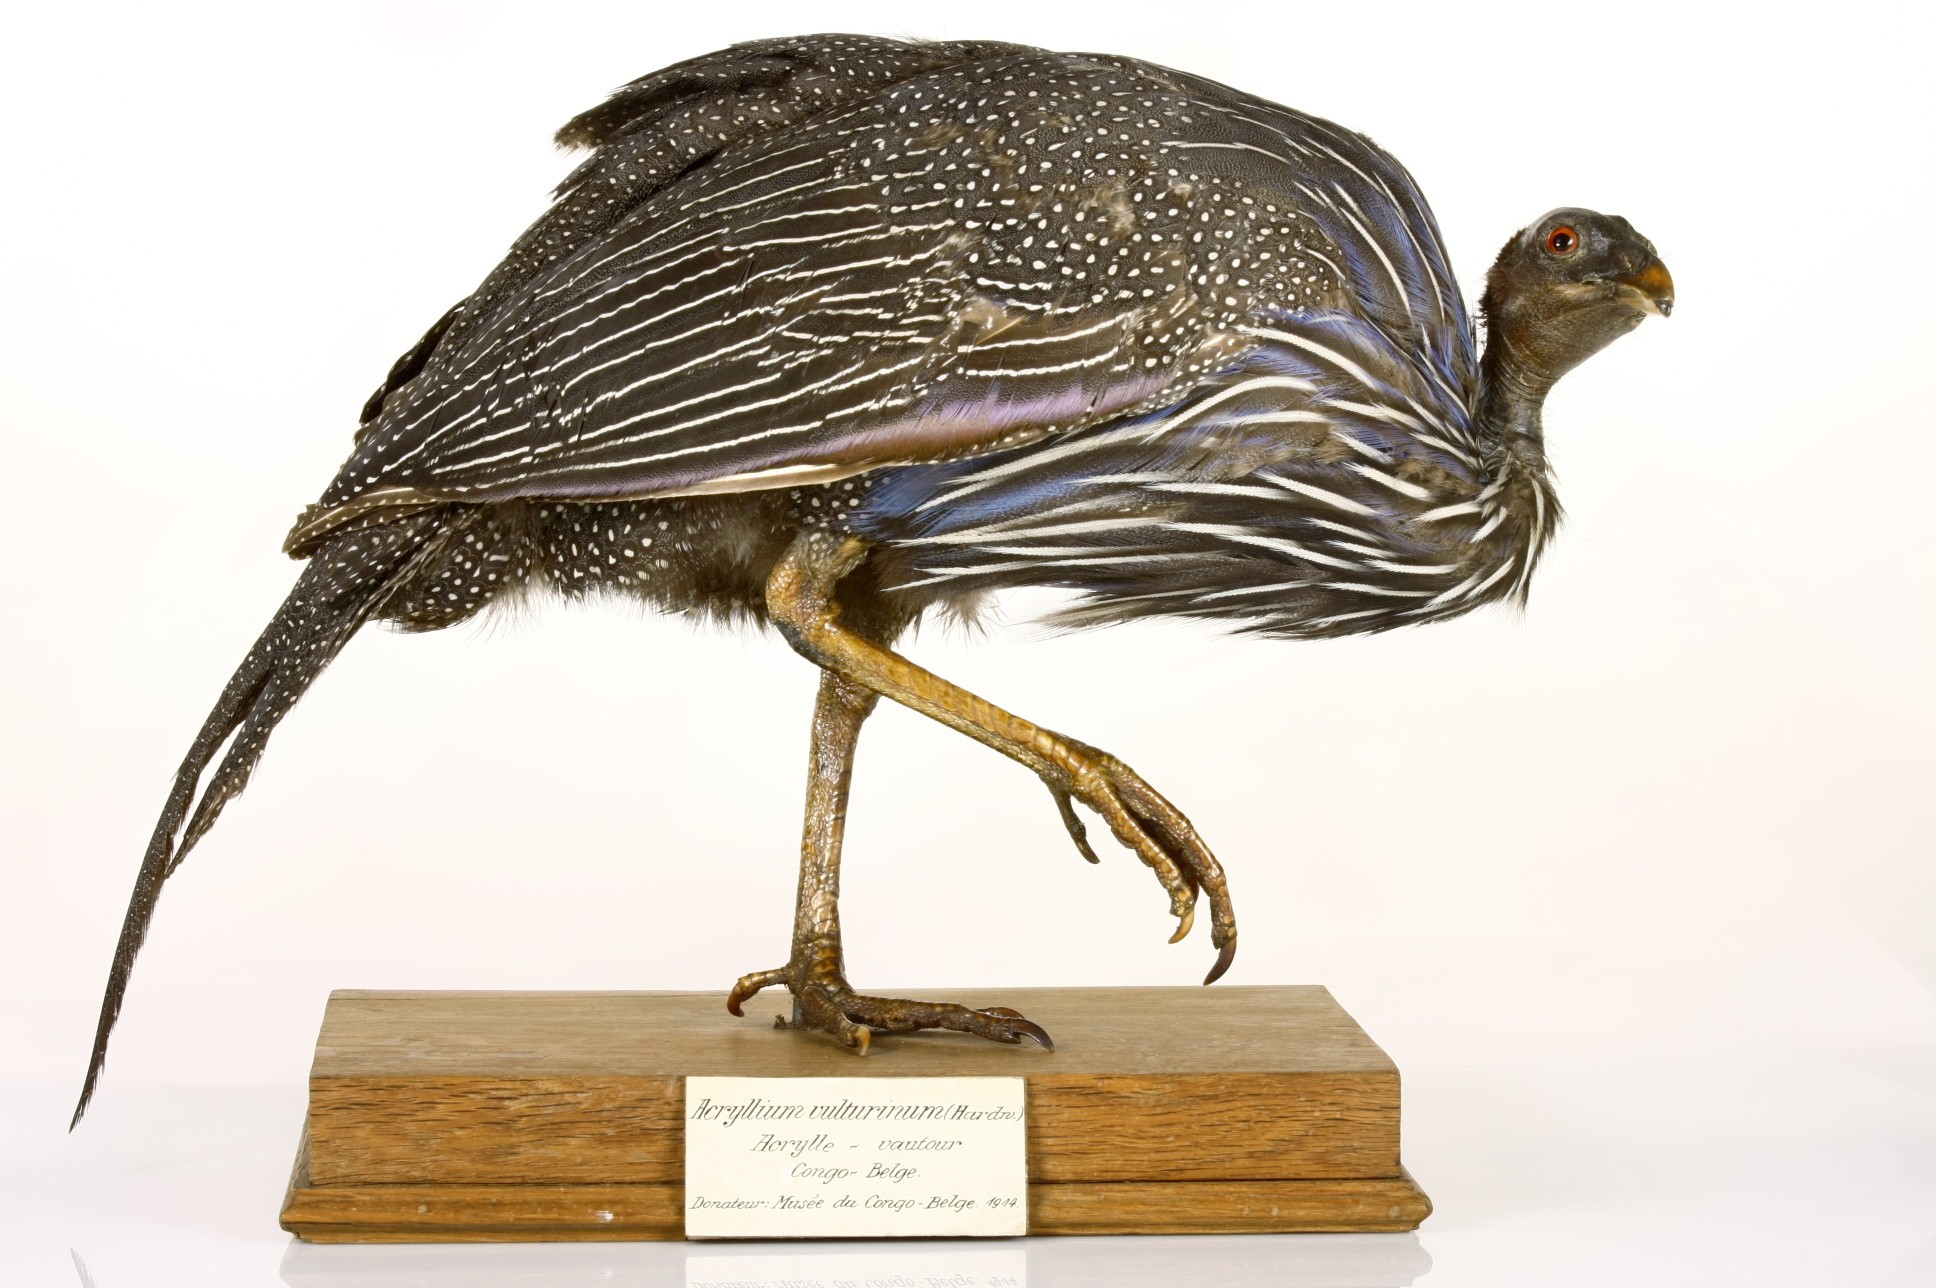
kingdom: Animalia
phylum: Chordata
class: Aves
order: Galliformes
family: Numididae
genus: Acryllium
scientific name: Acryllium vulturinum
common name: Vulturine guineafowl
